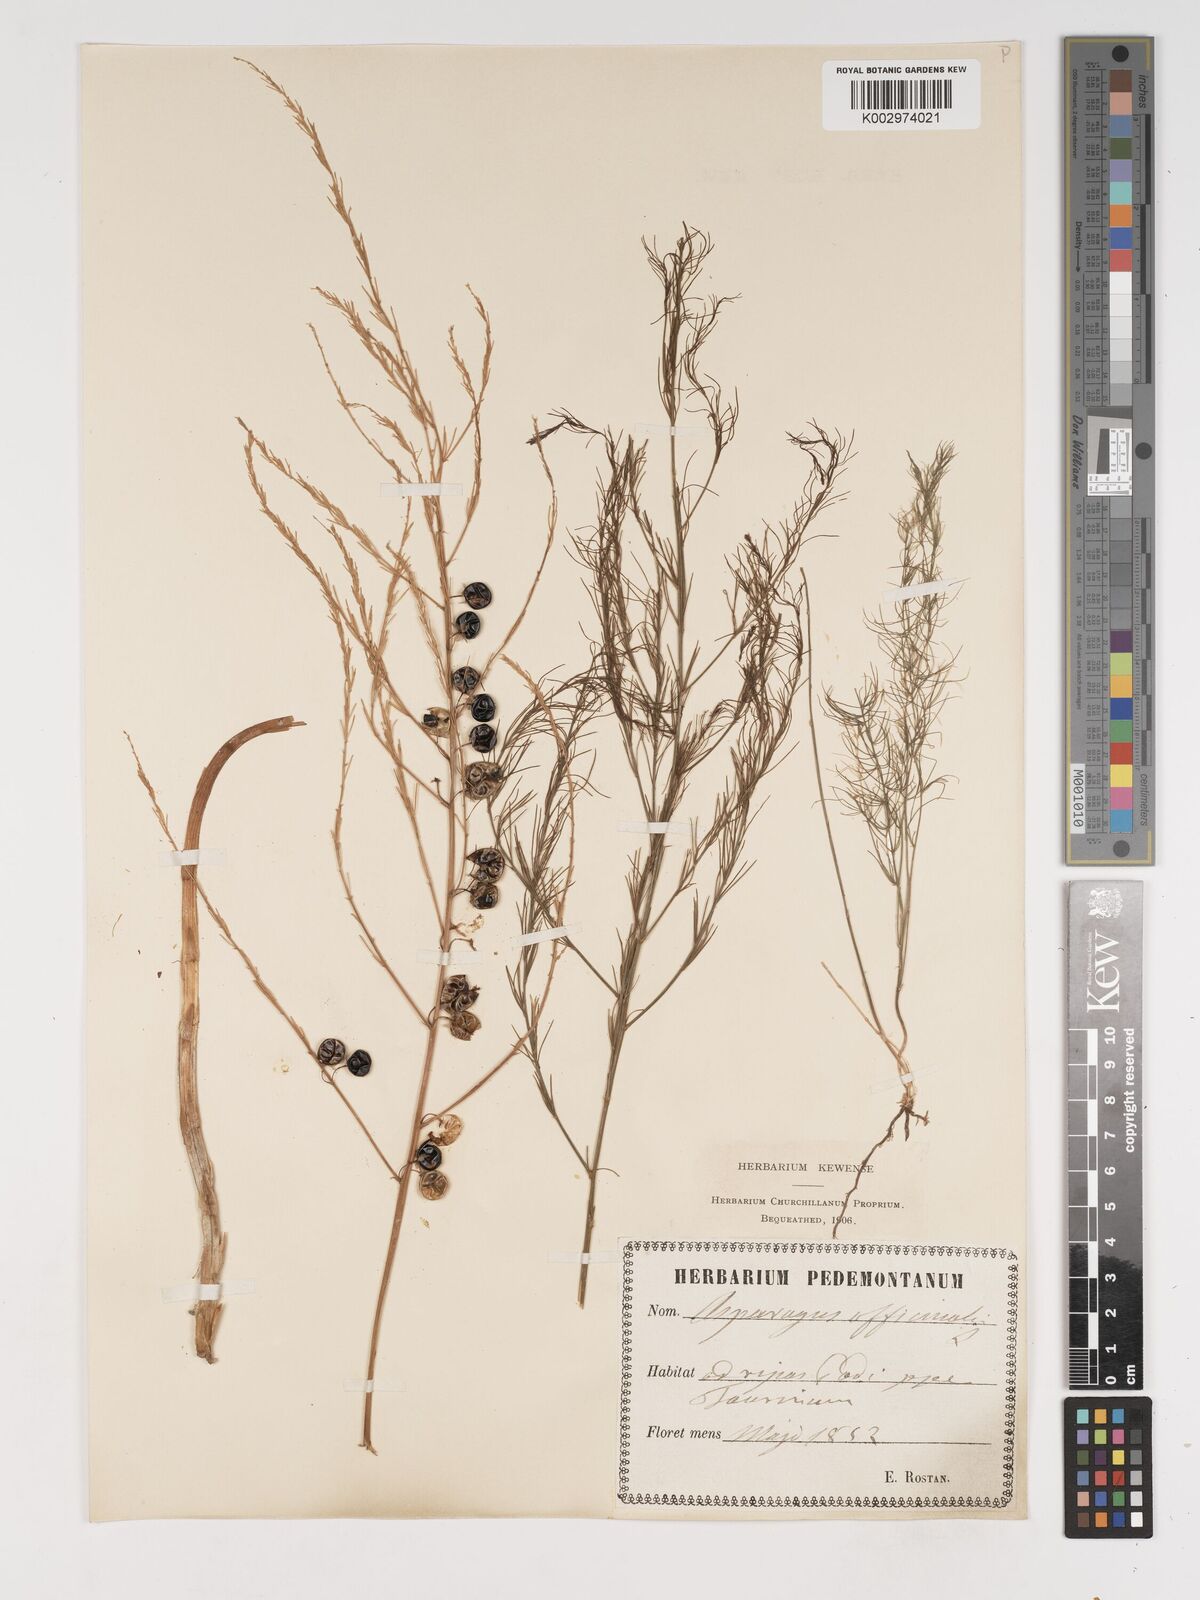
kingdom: Plantae
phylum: Tracheophyta
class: Liliopsida
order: Asparagales
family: Asparagaceae
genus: Asparagus
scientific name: Asparagus officinalis
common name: Garden asparagus
